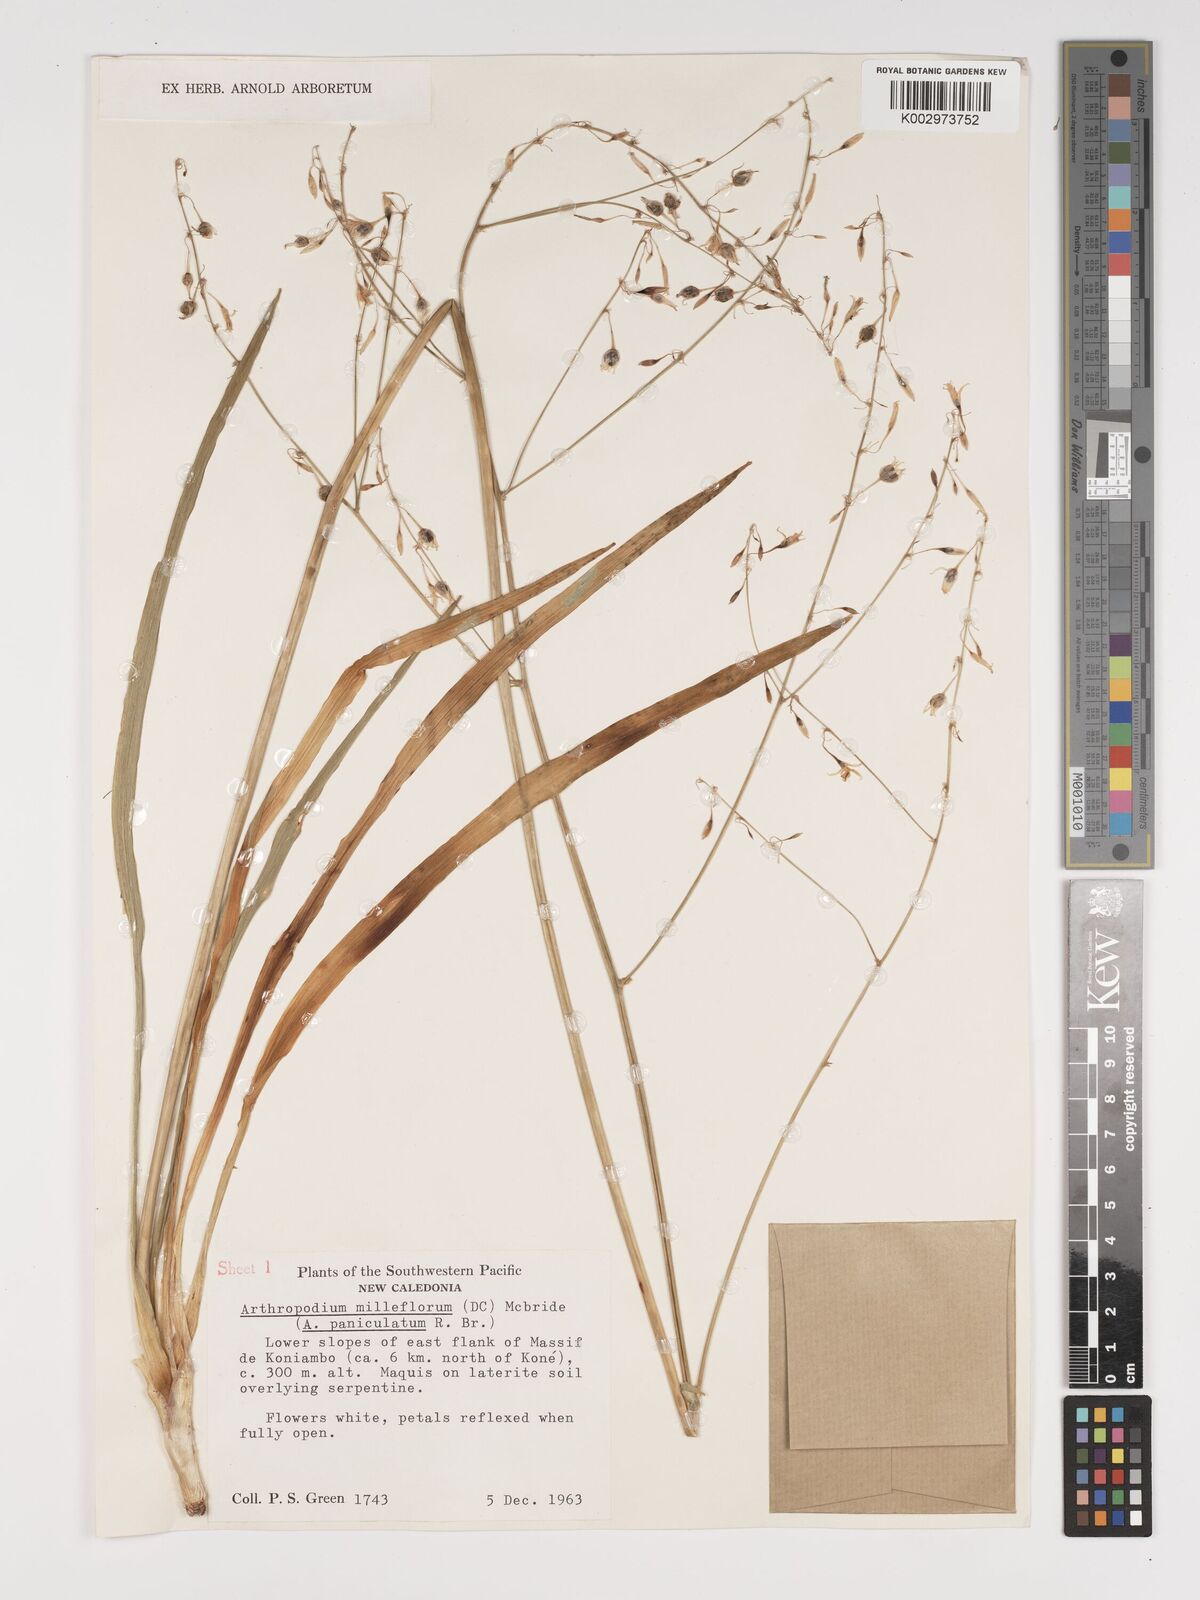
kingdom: Plantae
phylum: Tracheophyta
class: Liliopsida
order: Asparagales
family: Asparagaceae
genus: Arthropodium
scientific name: Arthropodium milleflorum
